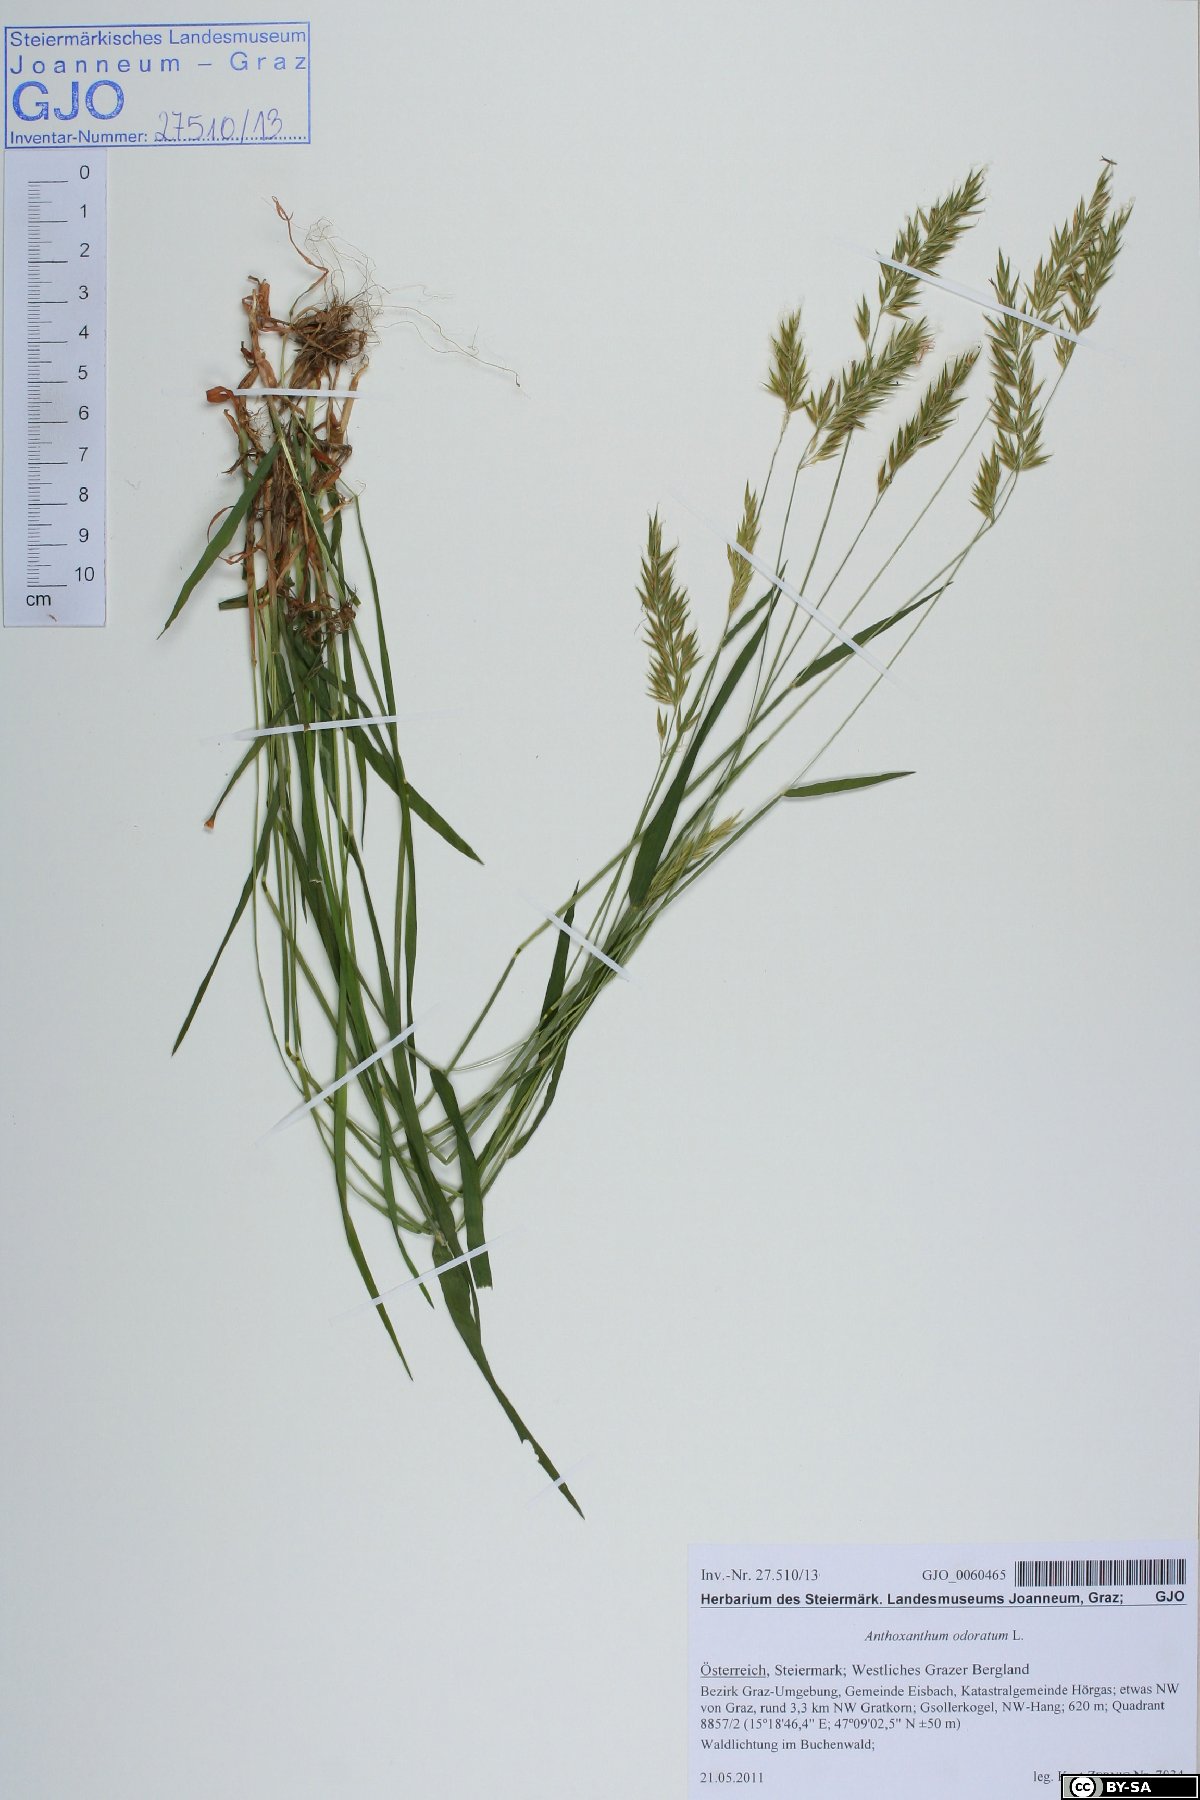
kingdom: Plantae
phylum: Tracheophyta
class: Liliopsida
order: Poales
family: Poaceae
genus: Anthoxanthum
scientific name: Anthoxanthum odoratum
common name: Sweet vernalgrass
